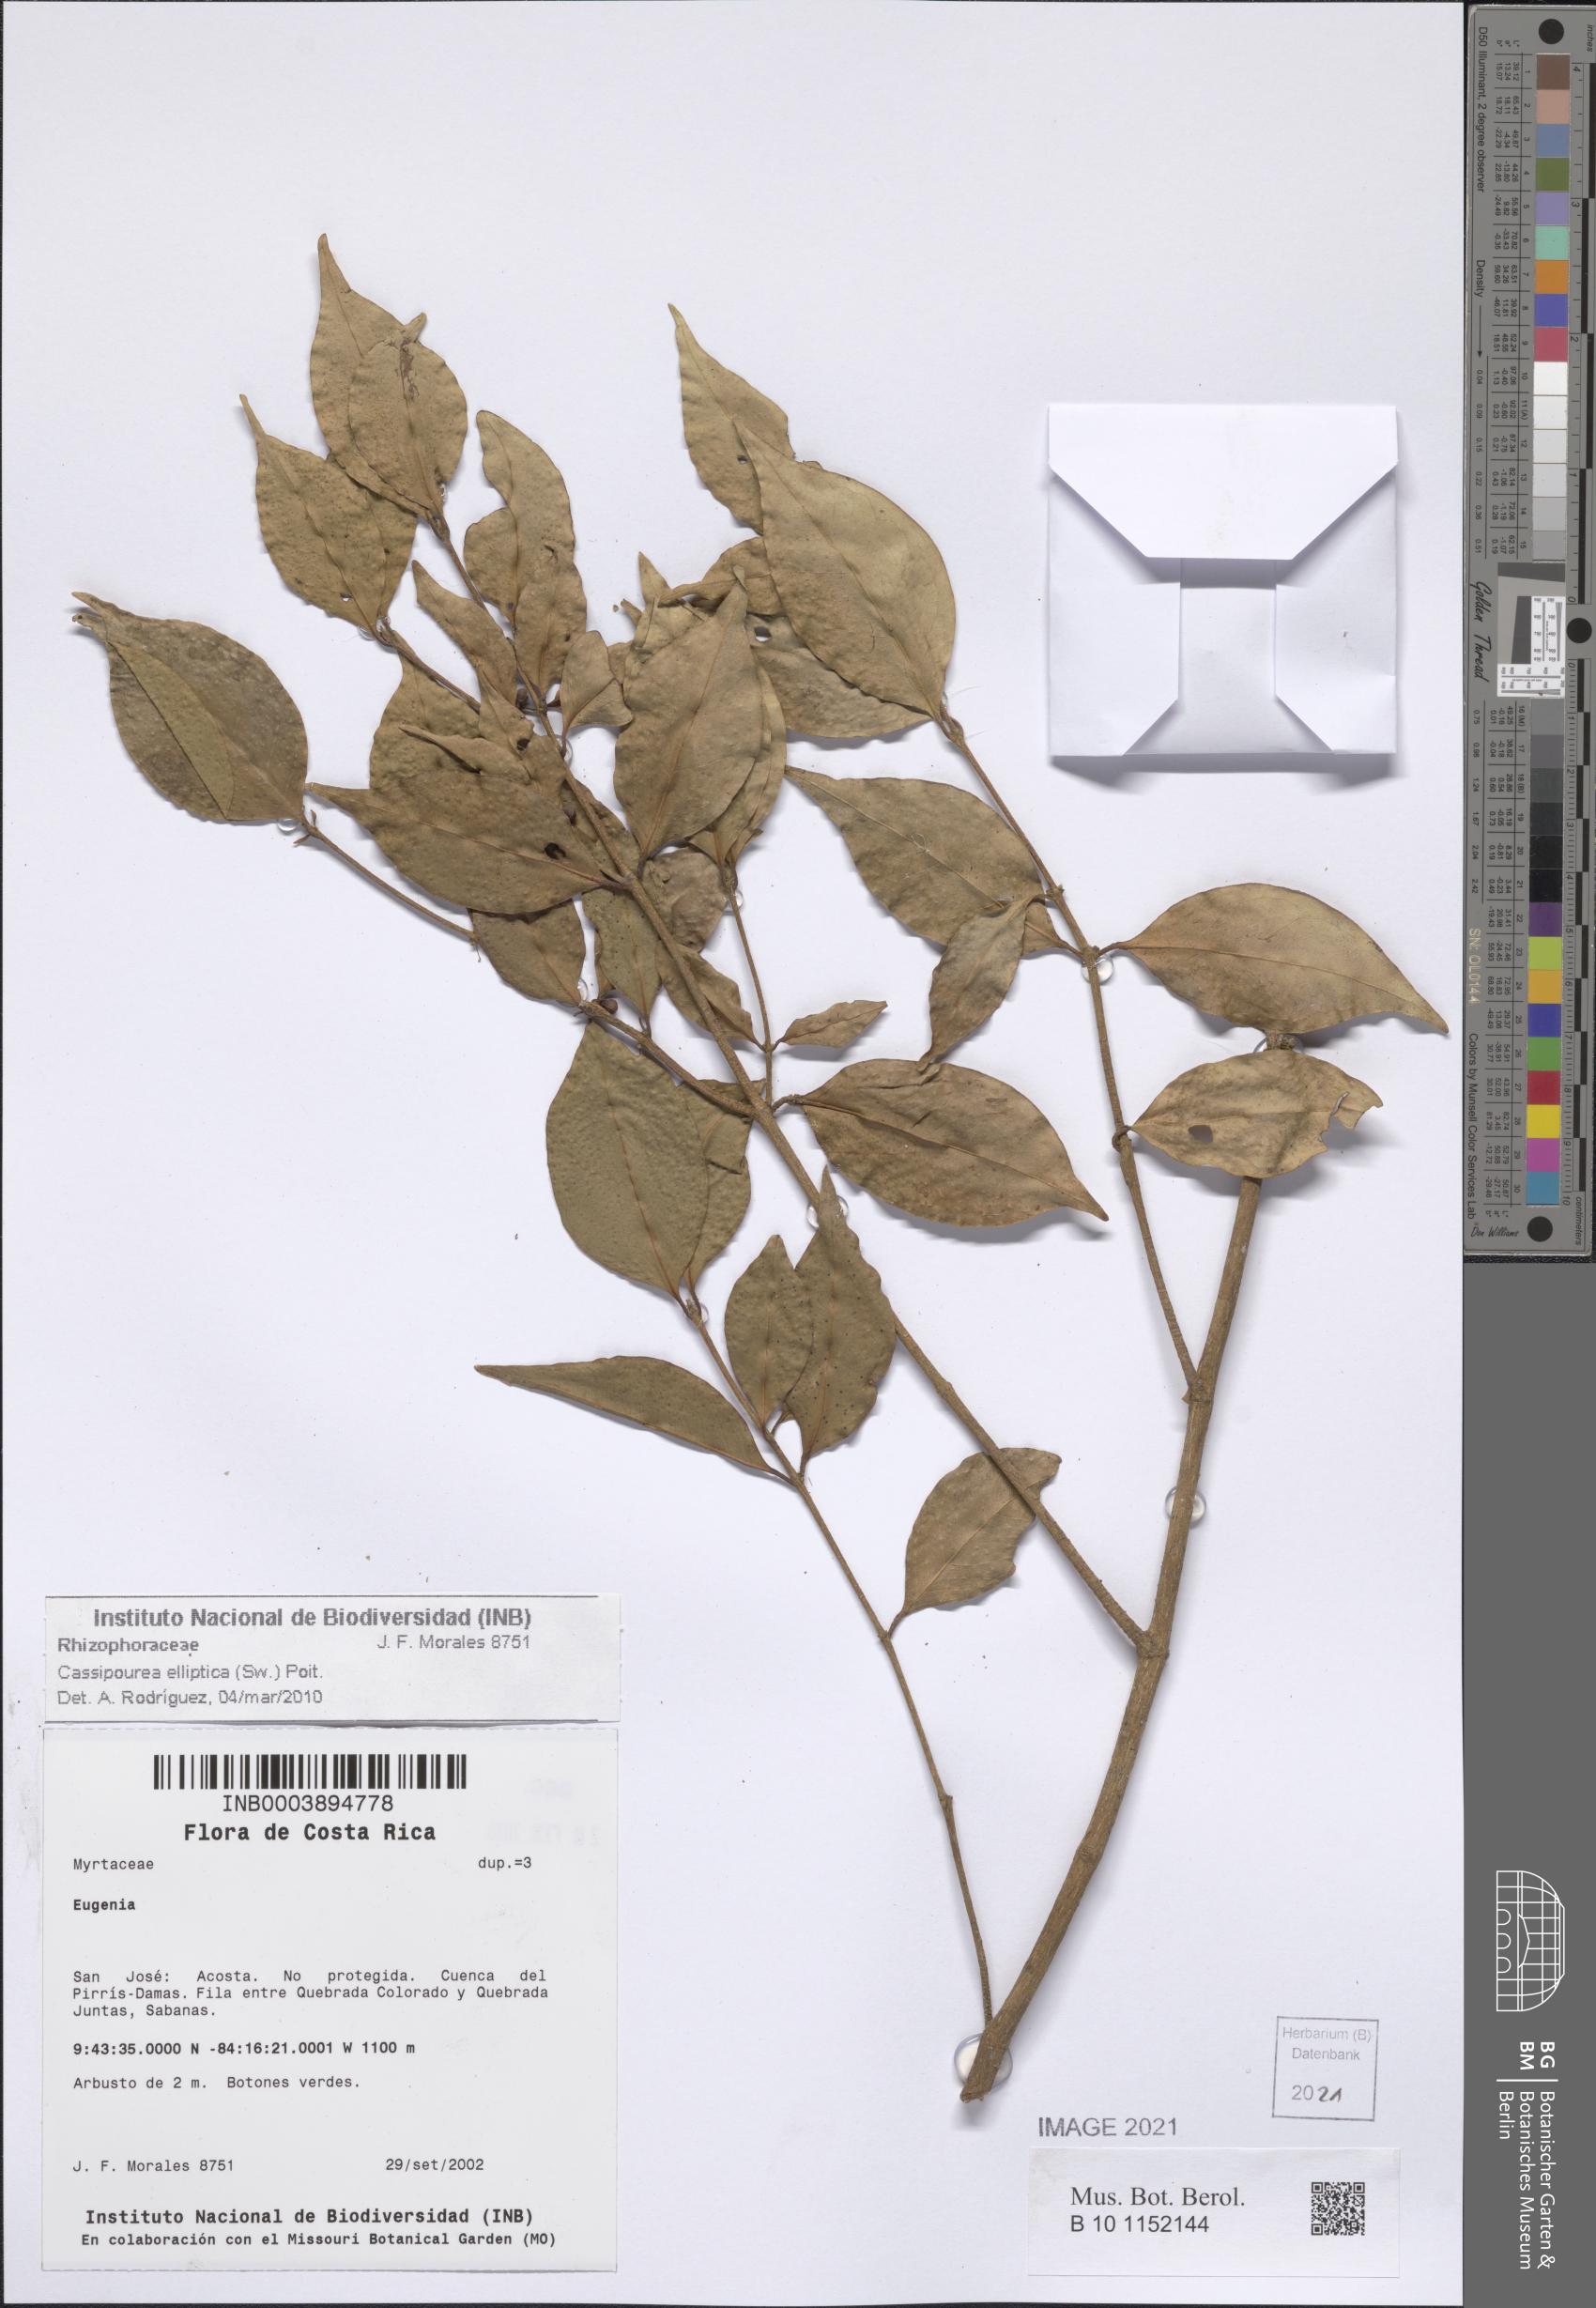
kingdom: Plantae
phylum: Tracheophyta
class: Magnoliopsida
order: Malpighiales
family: Rhizophoraceae
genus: Cassipourea
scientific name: Cassipourea elliptica
